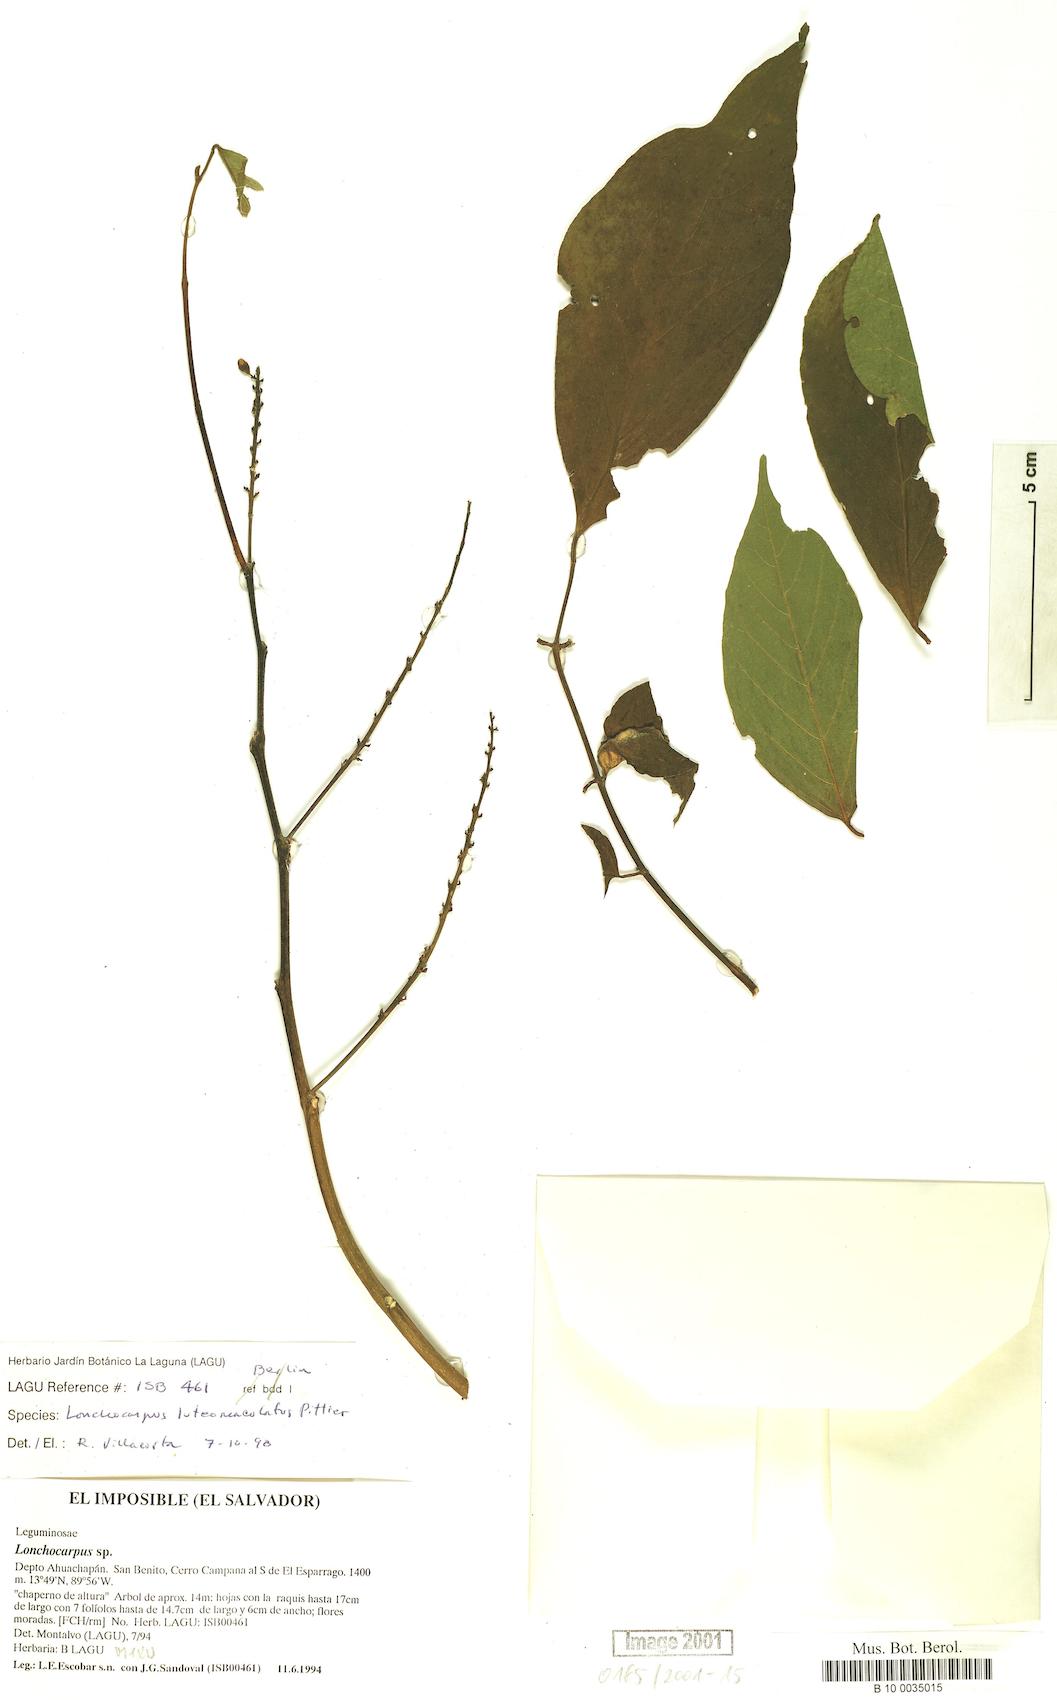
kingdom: Plantae
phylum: Tracheophyta
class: Magnoliopsida
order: Fabales
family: Fabaceae
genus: Lonchocarpus
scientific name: Lonchocarpus sanctuarii
